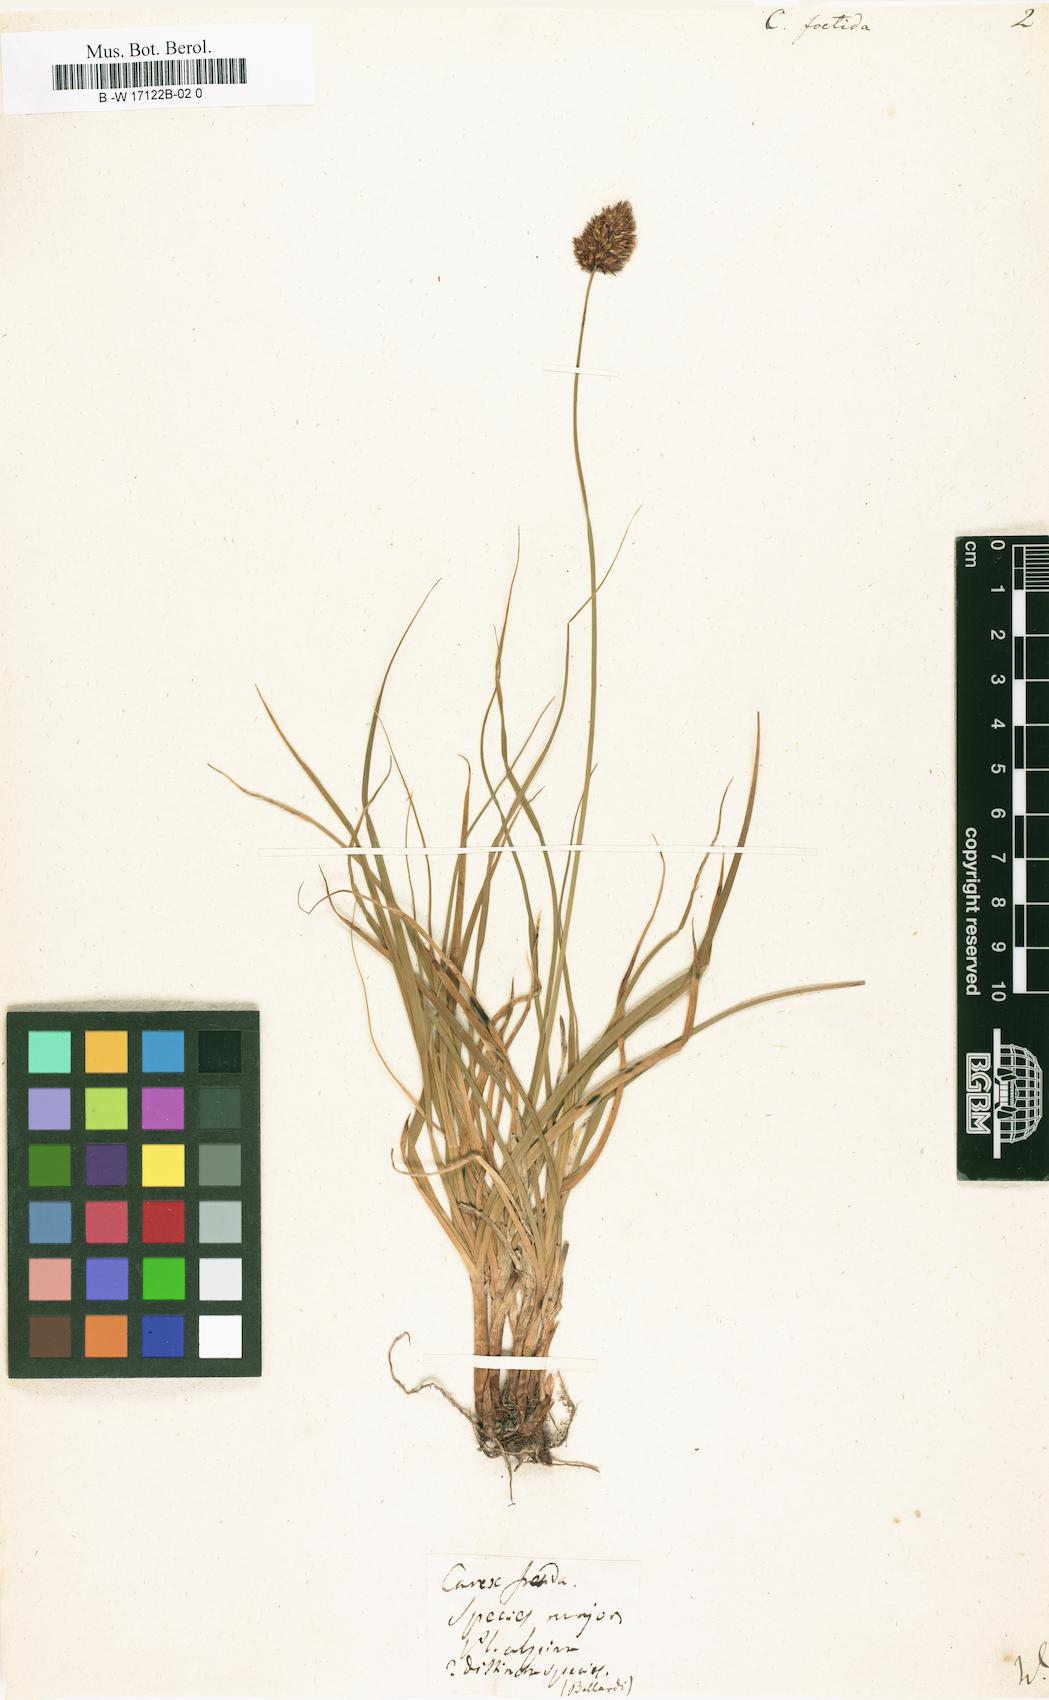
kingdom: Plantae
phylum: Tracheophyta
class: Liliopsida
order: Poales
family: Cyperaceae
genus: Carex
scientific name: Carex foetida
